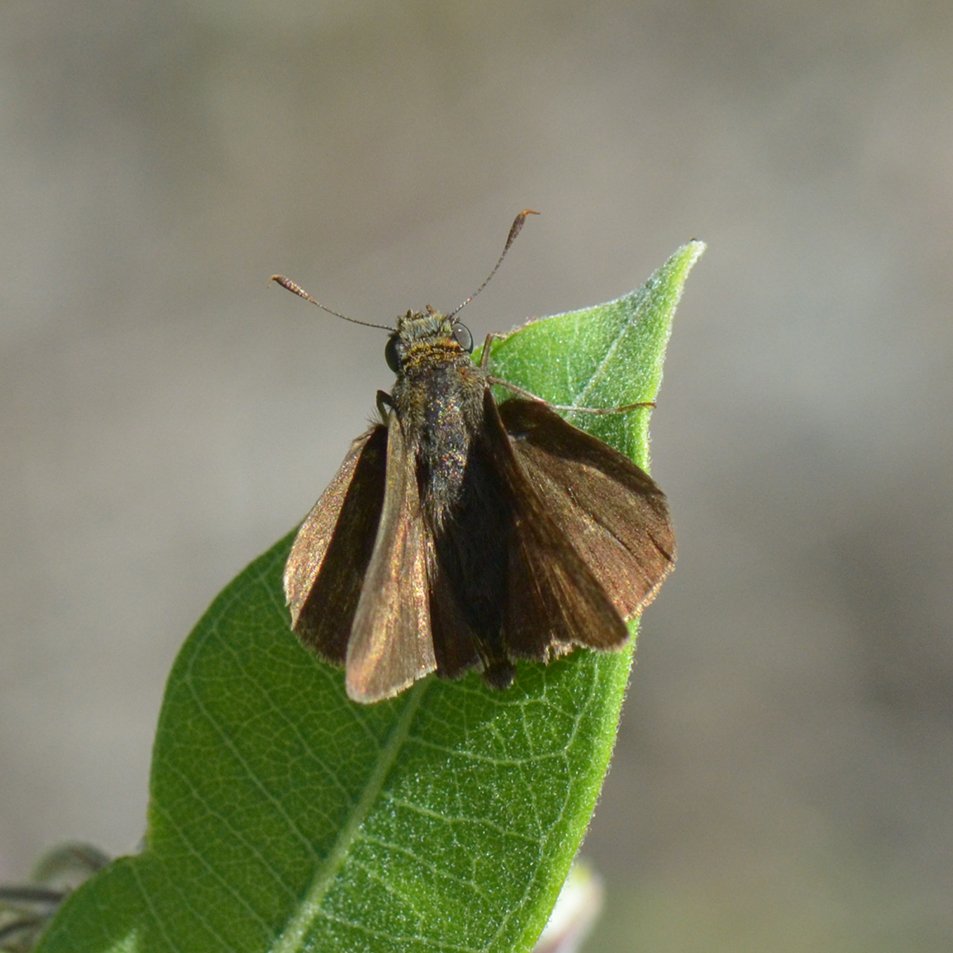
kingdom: Animalia
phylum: Arthropoda
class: Insecta
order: Lepidoptera
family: Hesperiidae
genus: Euphyes
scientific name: Euphyes vestris
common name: Dun Skipper
